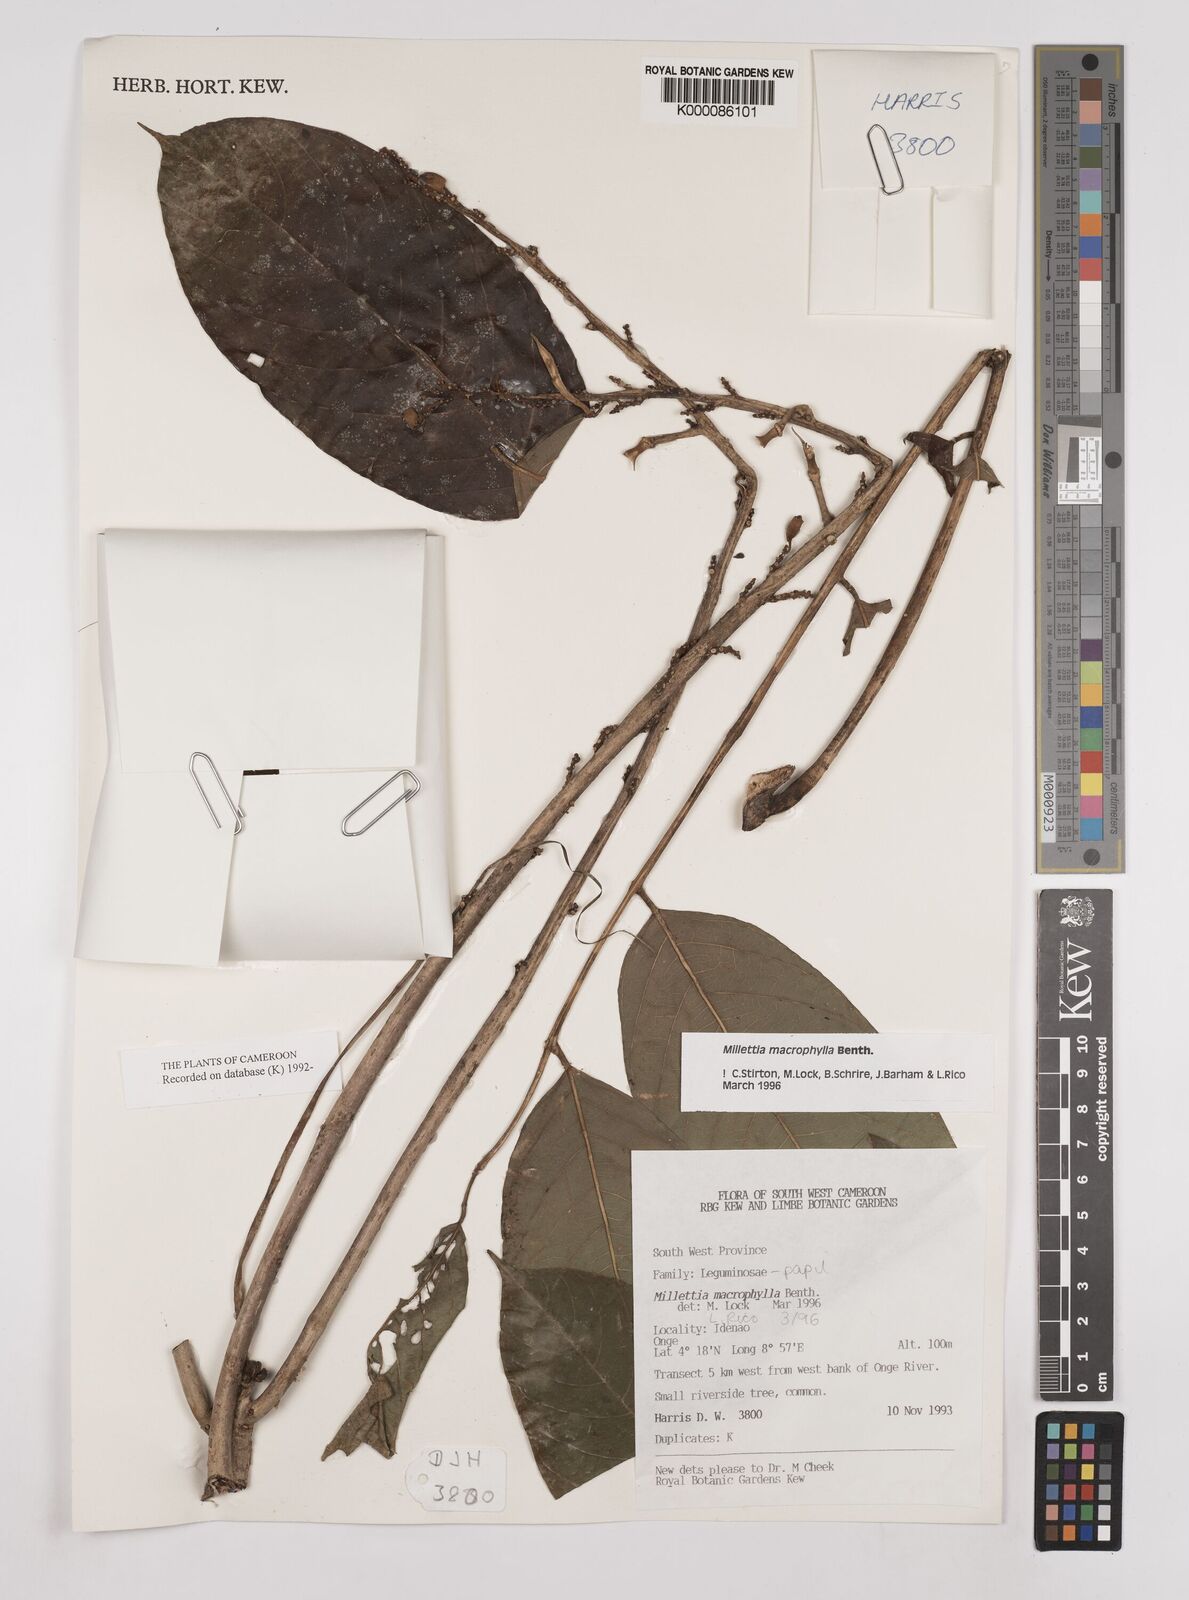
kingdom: Plantae
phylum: Tracheophyta
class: Magnoliopsida
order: Fabales
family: Fabaceae
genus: Millettia
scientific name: Millettia macrophylla
